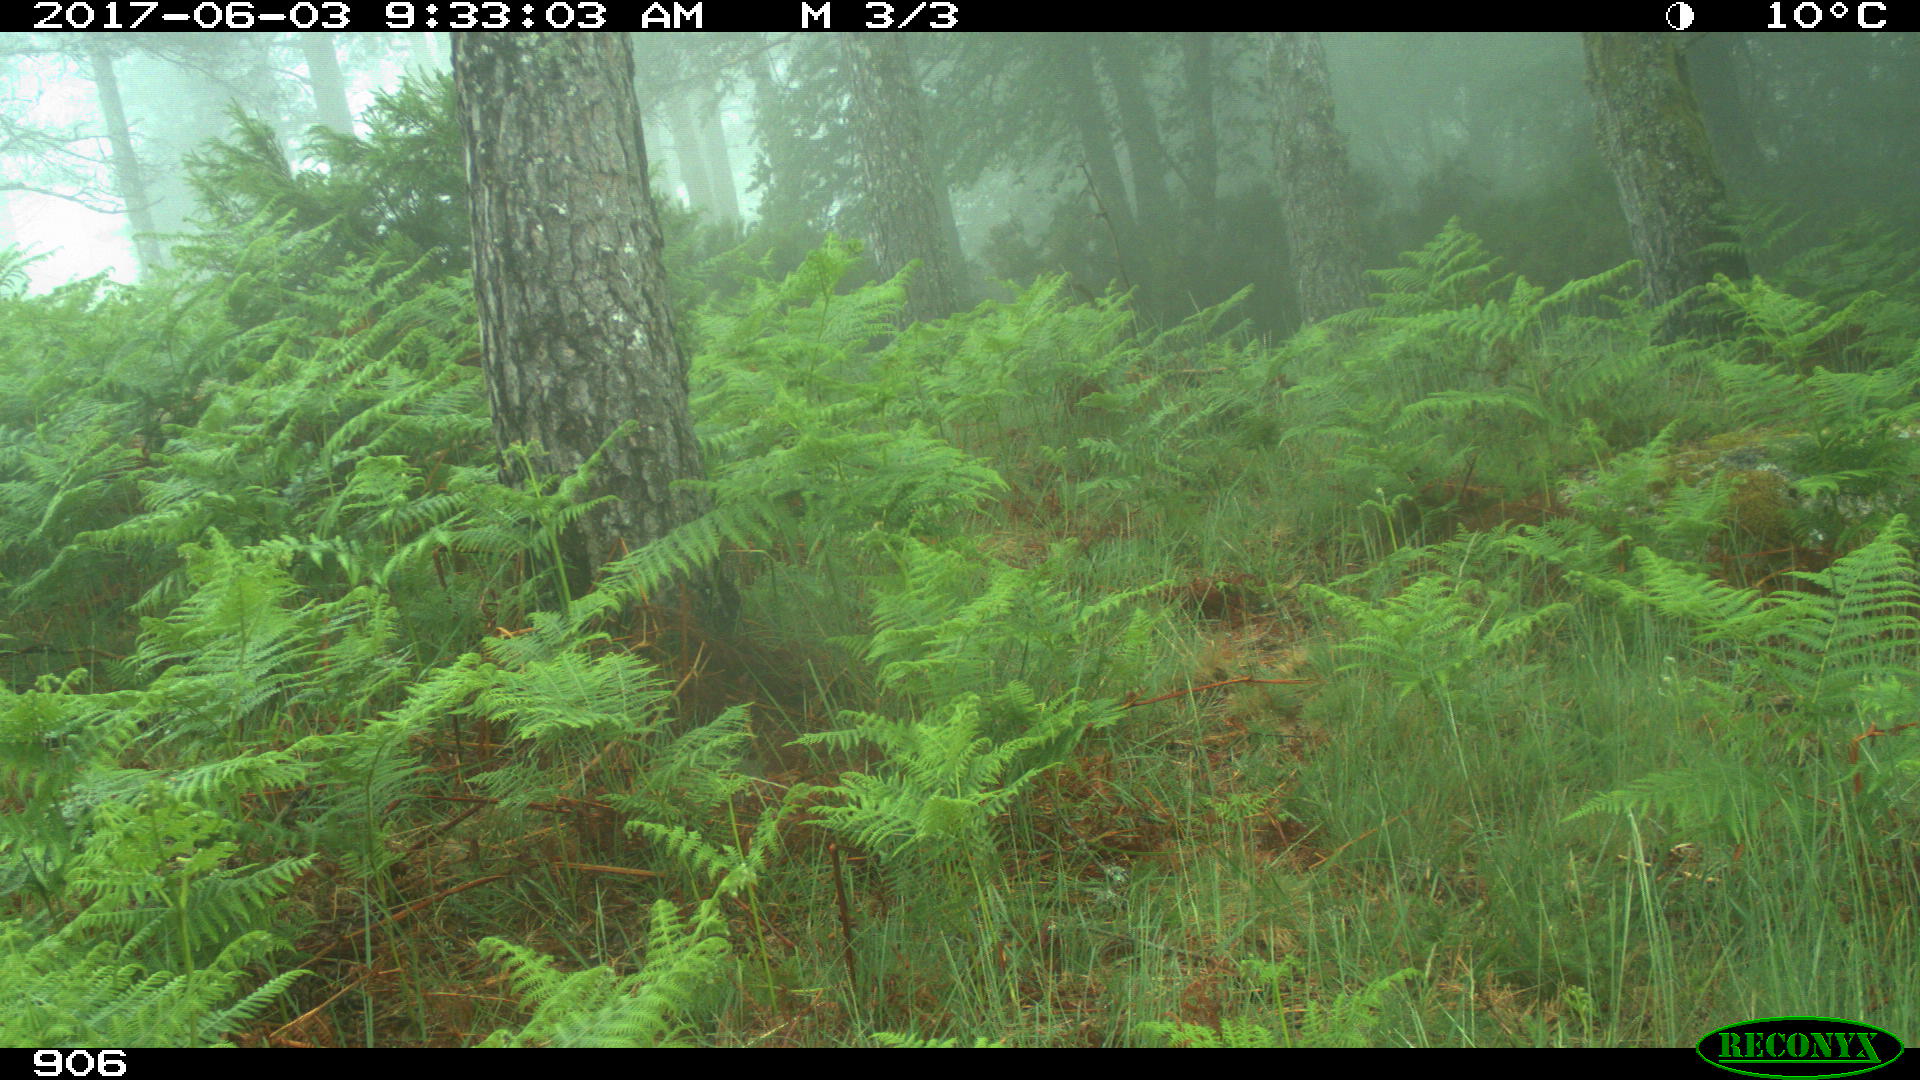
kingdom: Animalia
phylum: Chordata
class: Mammalia
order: Perissodactyla
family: Equidae
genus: Equus
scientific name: Equus caballus
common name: Horse
